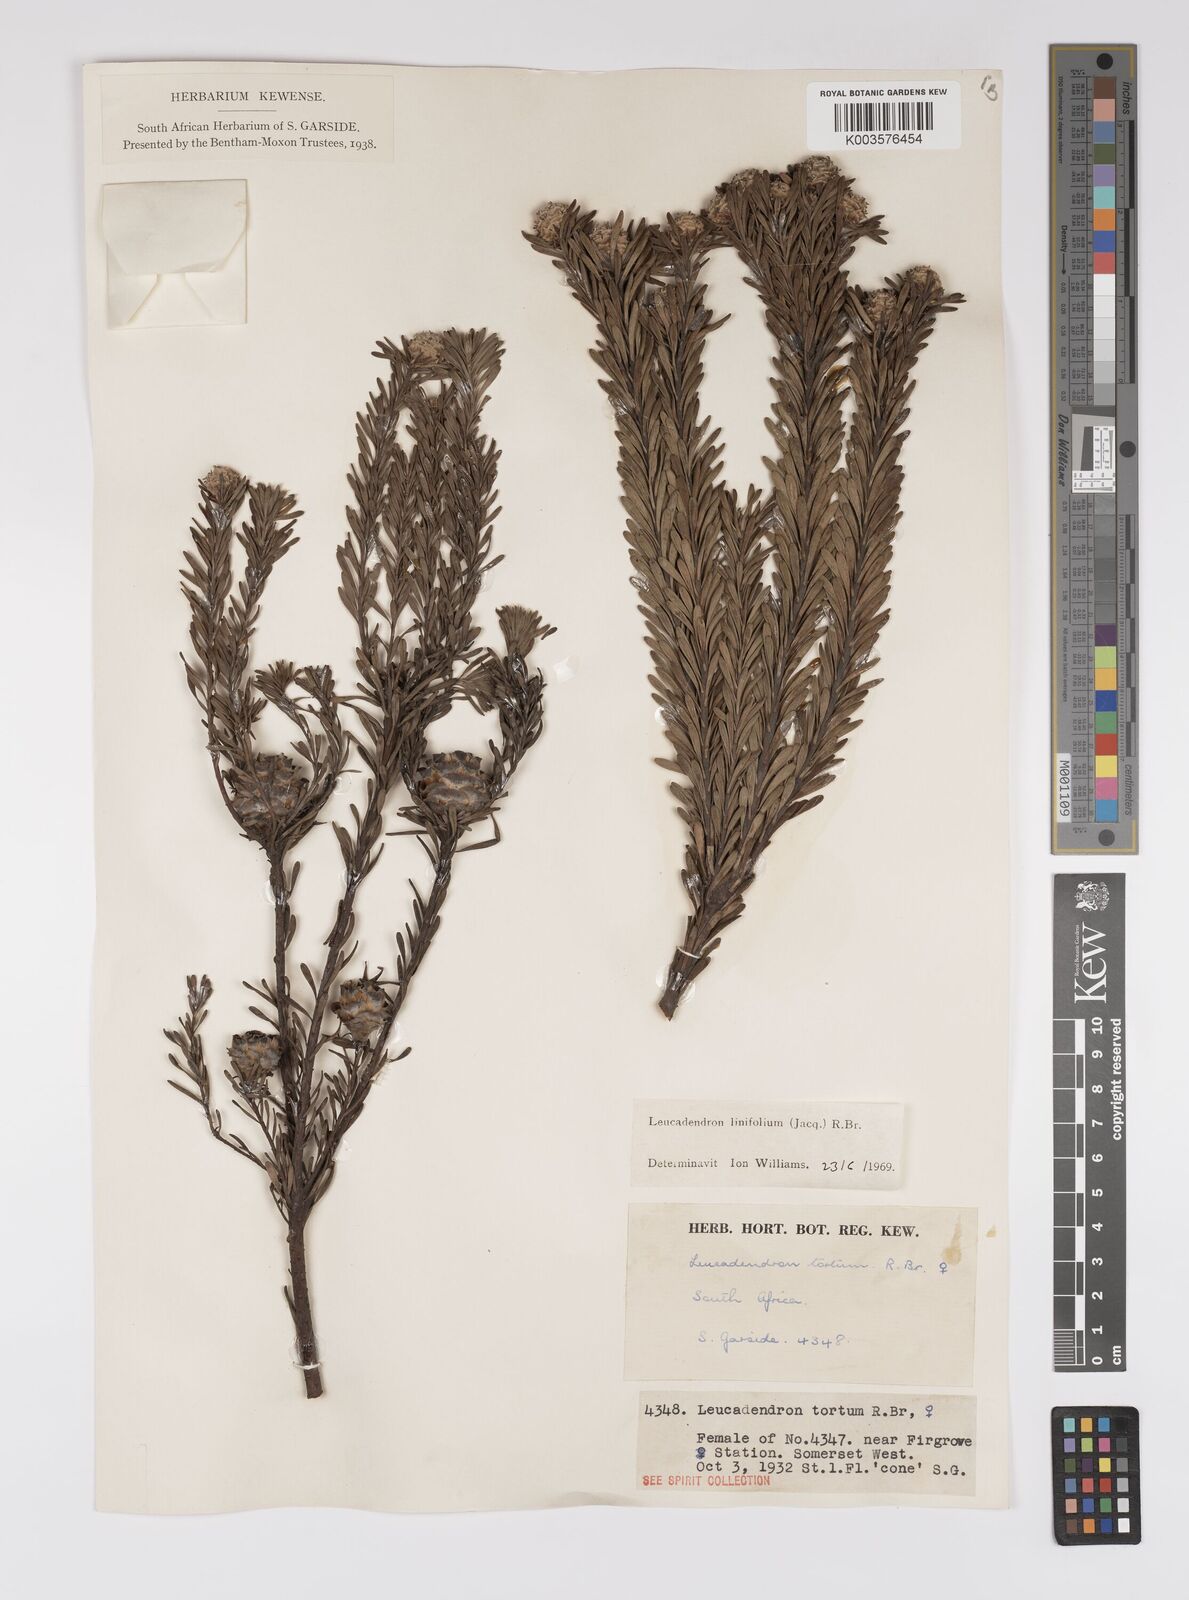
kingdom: Plantae
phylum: Tracheophyta
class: Magnoliopsida
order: Proteales
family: Proteaceae
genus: Leucadendron
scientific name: Leucadendron linifolium
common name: Line-leaf conebush
